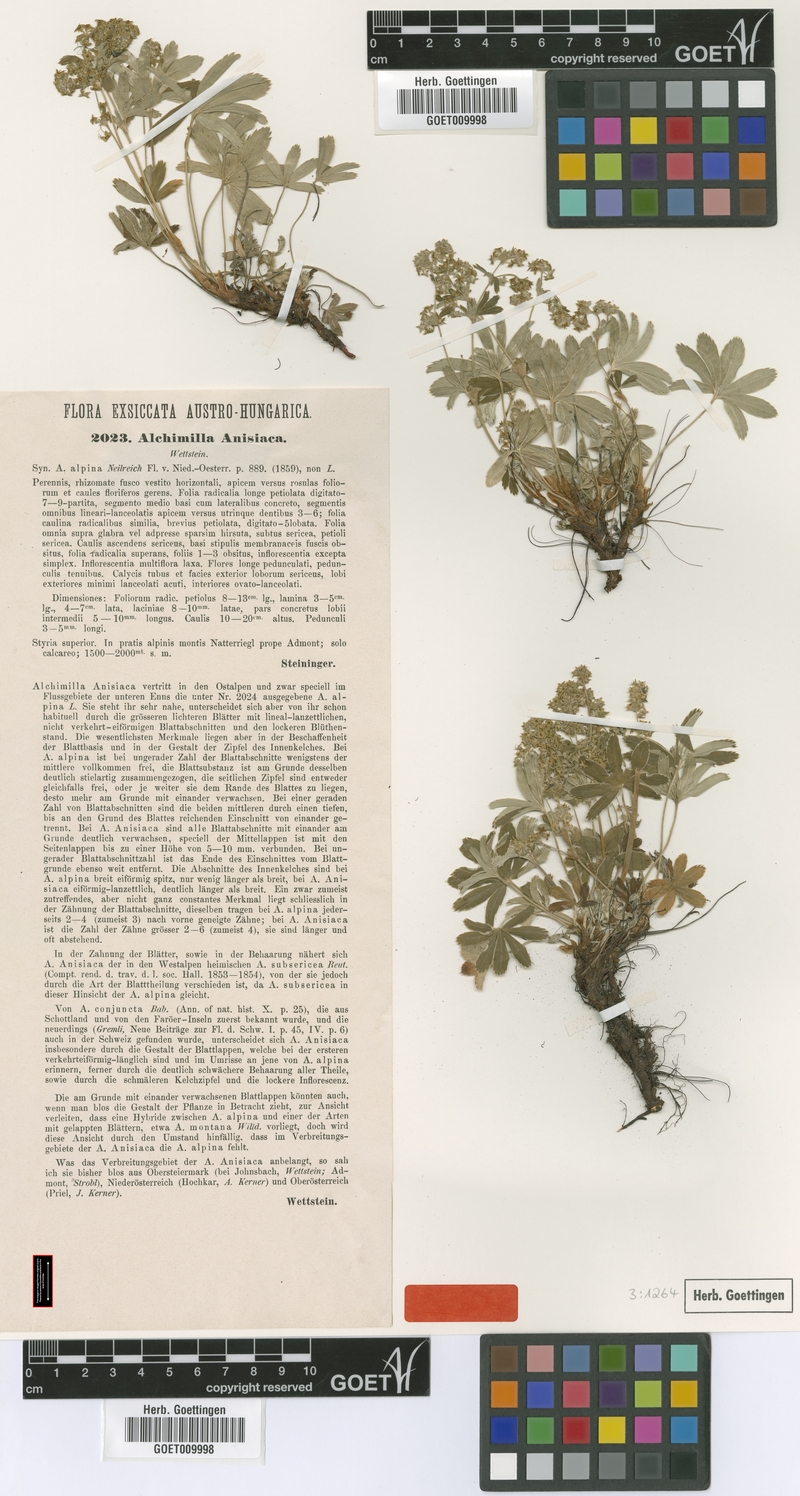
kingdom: Plantae
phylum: Tracheophyta
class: Magnoliopsida
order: Rosales
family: Rosaceae
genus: Alchemilla
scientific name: Alchemilla anisiaca
